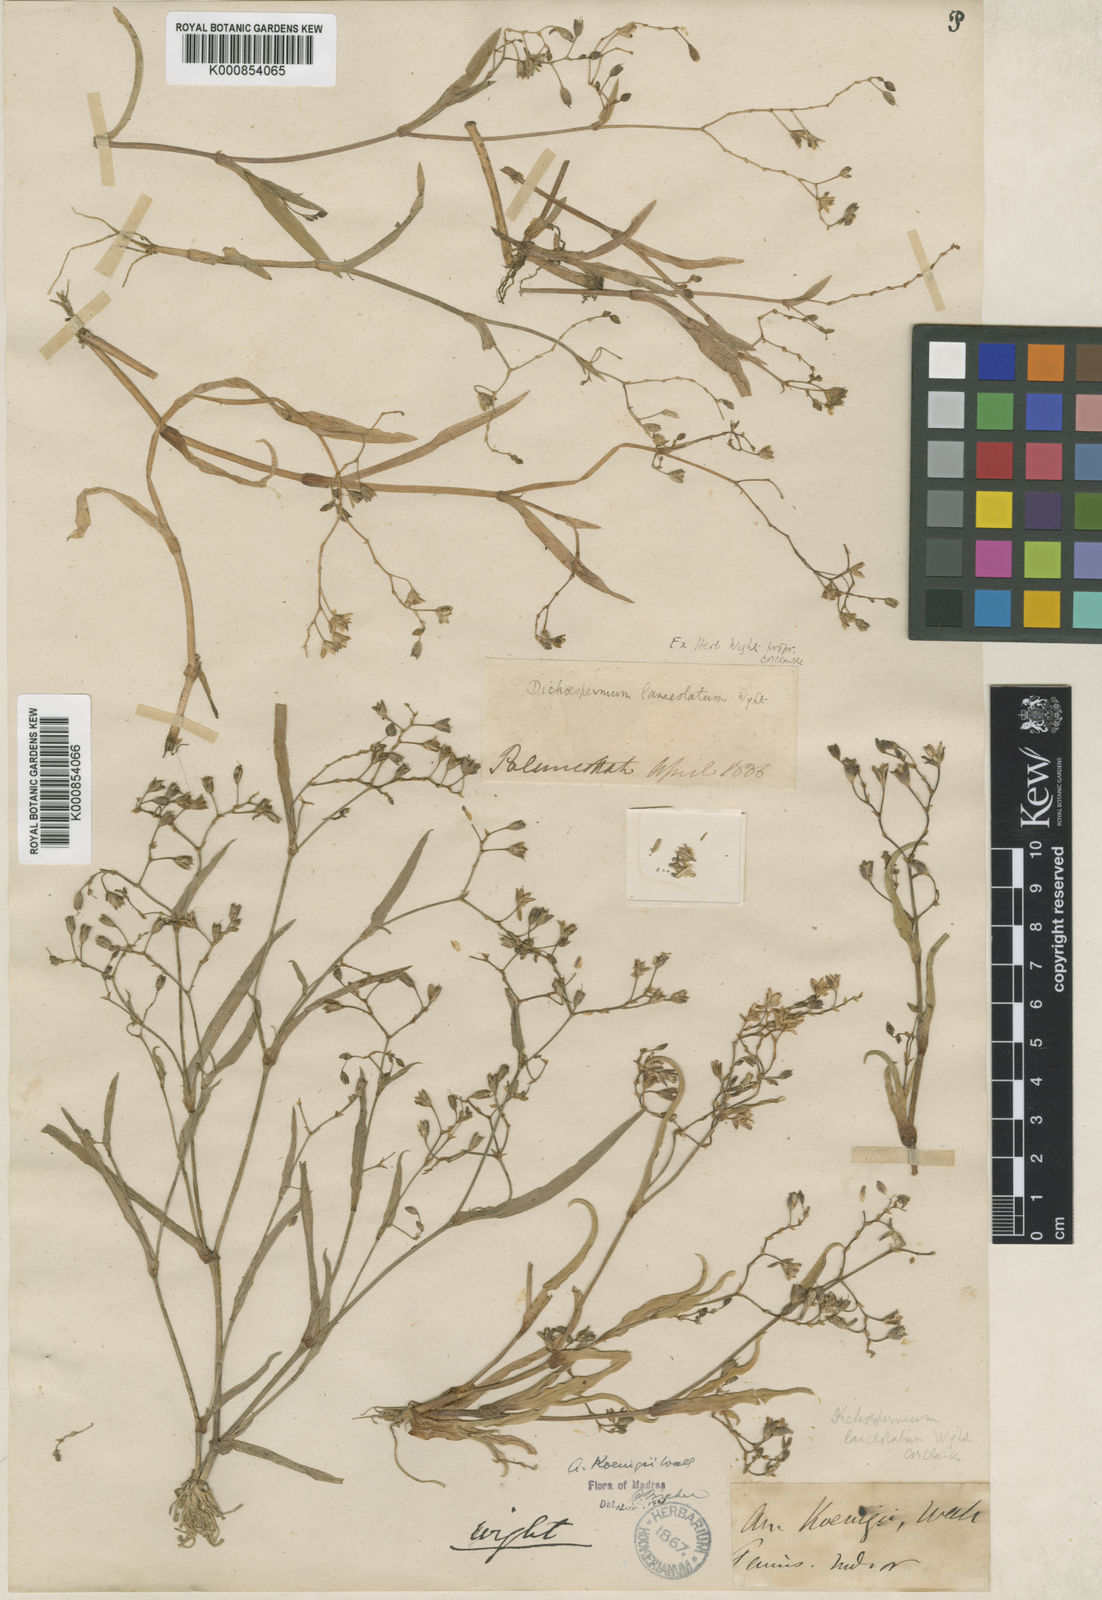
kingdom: Plantae
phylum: Tracheophyta
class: Liliopsida
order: Commelinales
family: Commelinaceae
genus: Murdannia
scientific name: Murdannia
